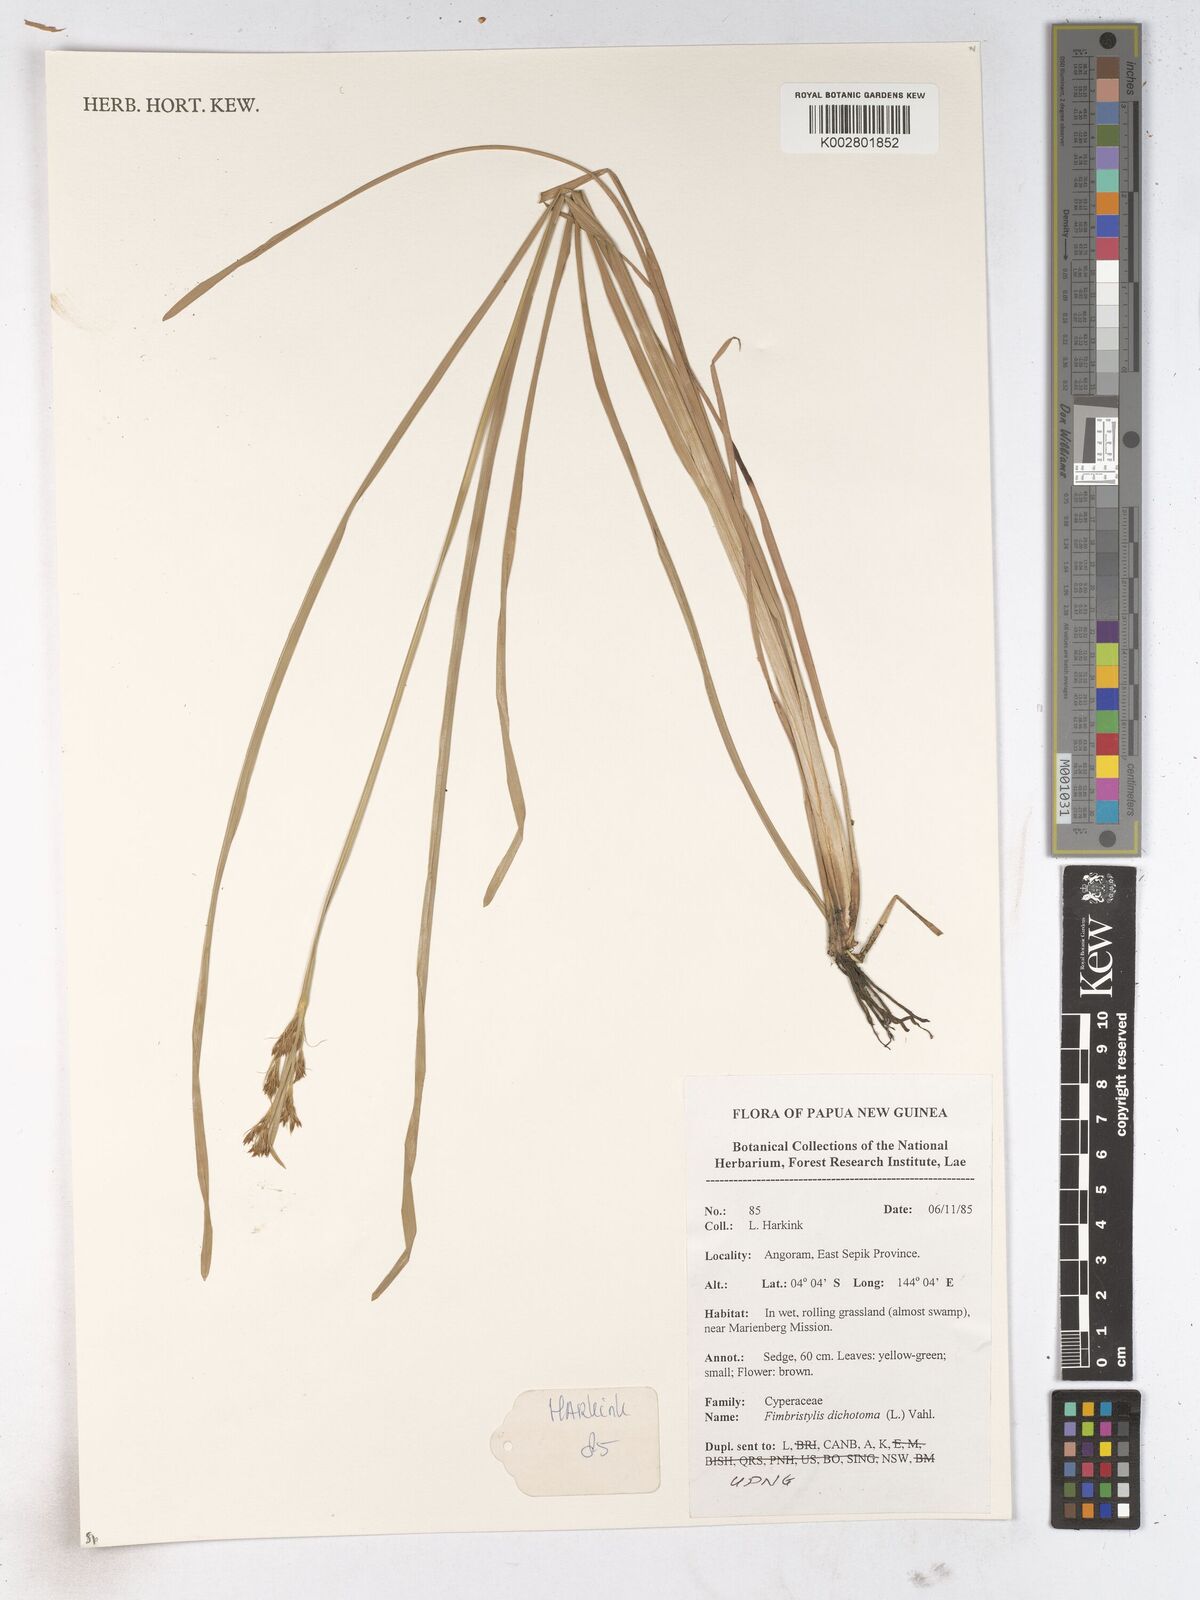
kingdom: Plantae
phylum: Tracheophyta
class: Liliopsida
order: Poales
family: Cyperaceae
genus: Fimbristylis
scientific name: Fimbristylis dichotoma
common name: Forked fimbry
